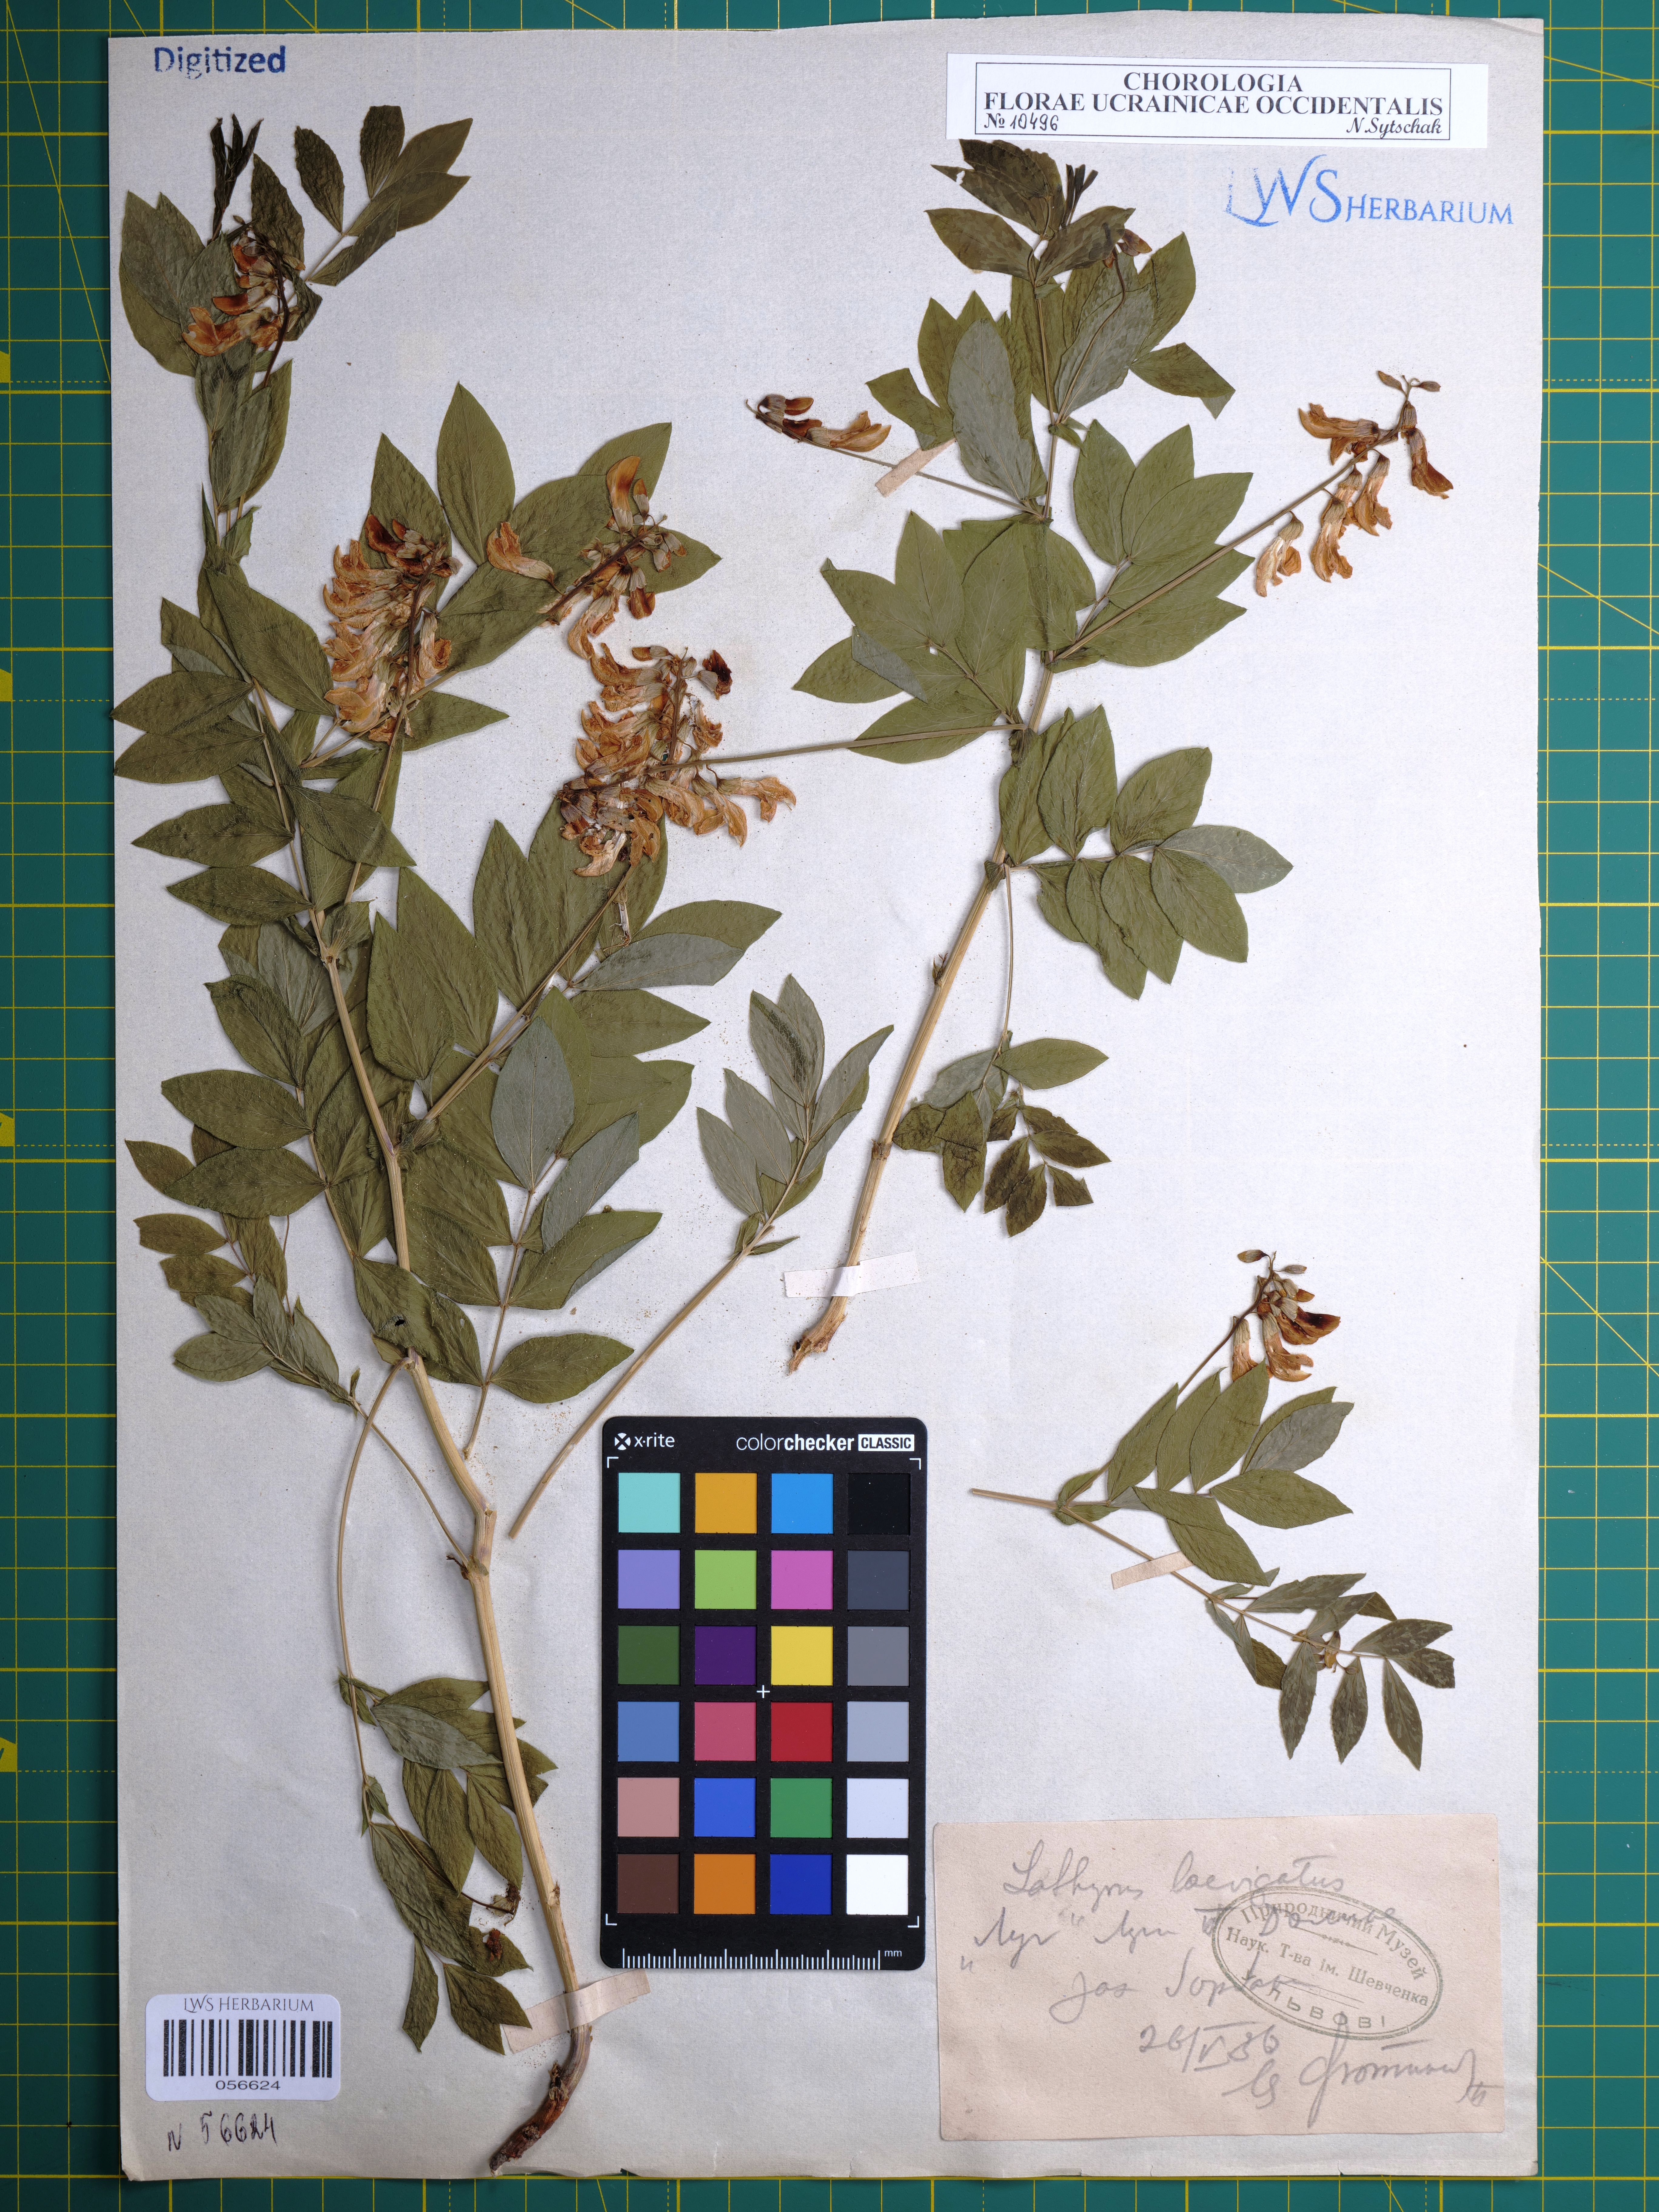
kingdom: Plantae
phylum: Tracheophyta
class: Magnoliopsida
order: Fabales
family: Fabaceae
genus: Lathyrus
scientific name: Lathyrus laevigatus
